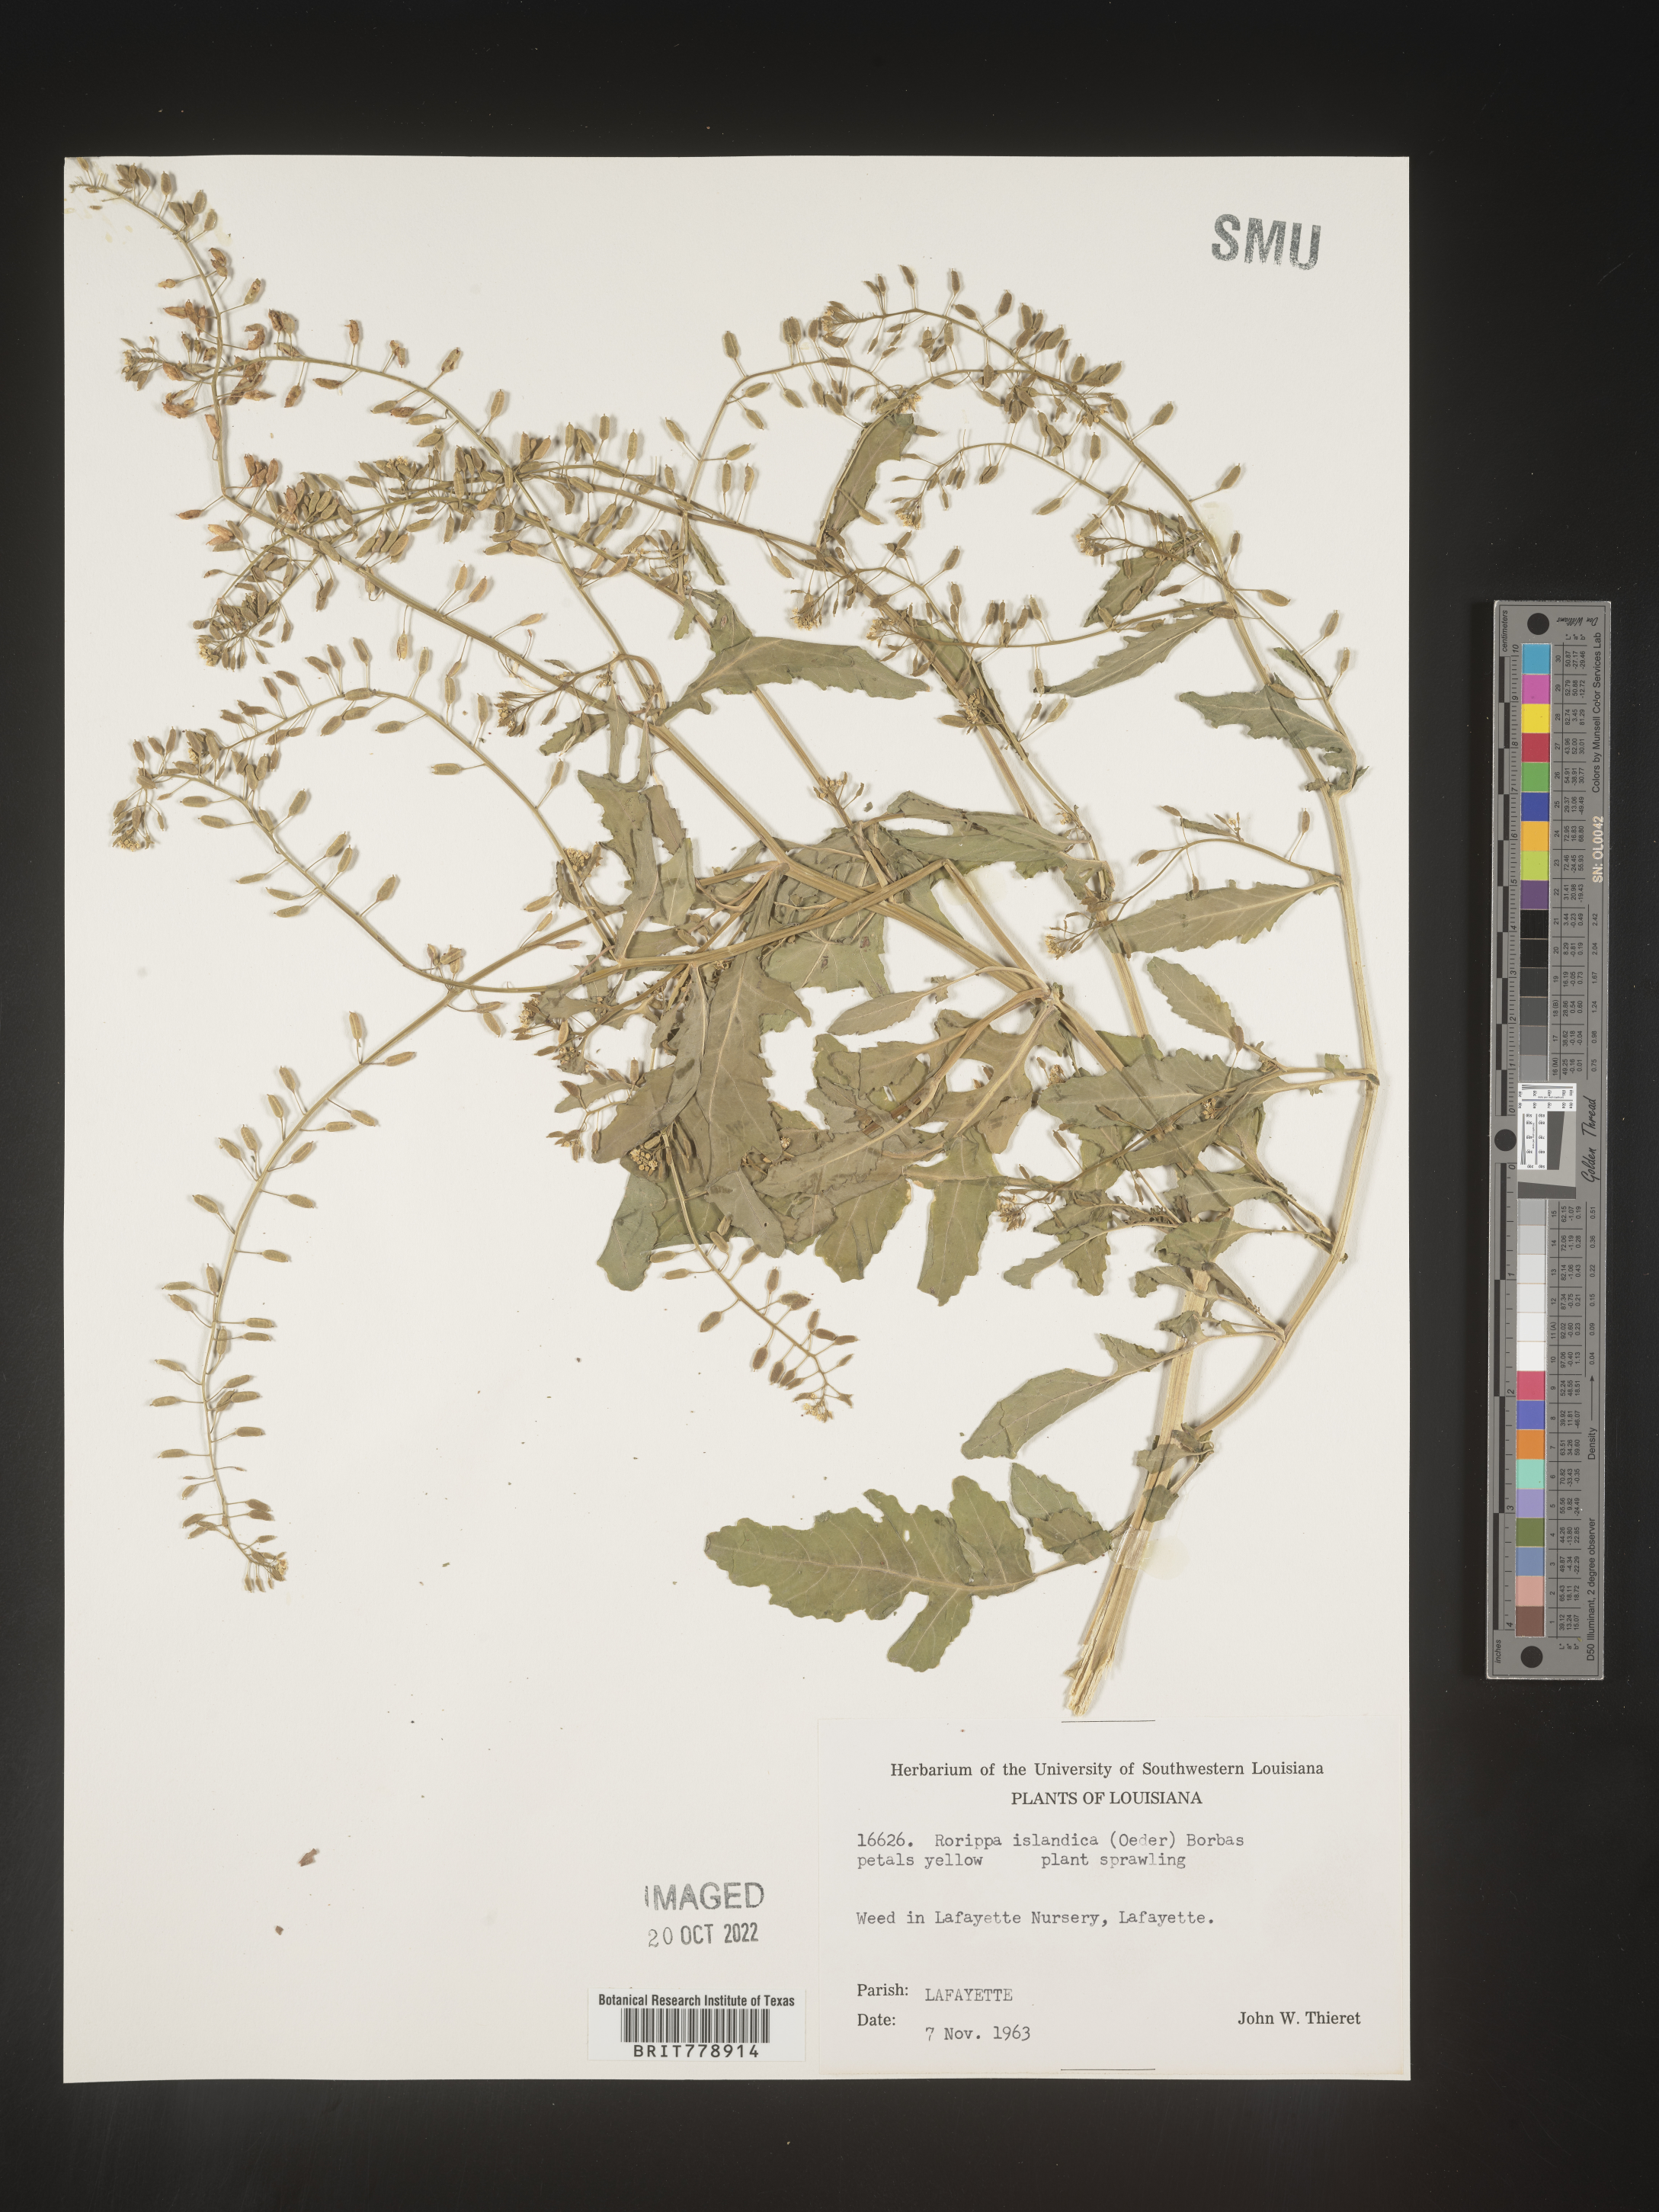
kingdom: Plantae
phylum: Tracheophyta
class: Magnoliopsida
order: Brassicales
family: Brassicaceae
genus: Rorippa
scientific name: Rorippa palustris
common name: Marsh yellow-cress
